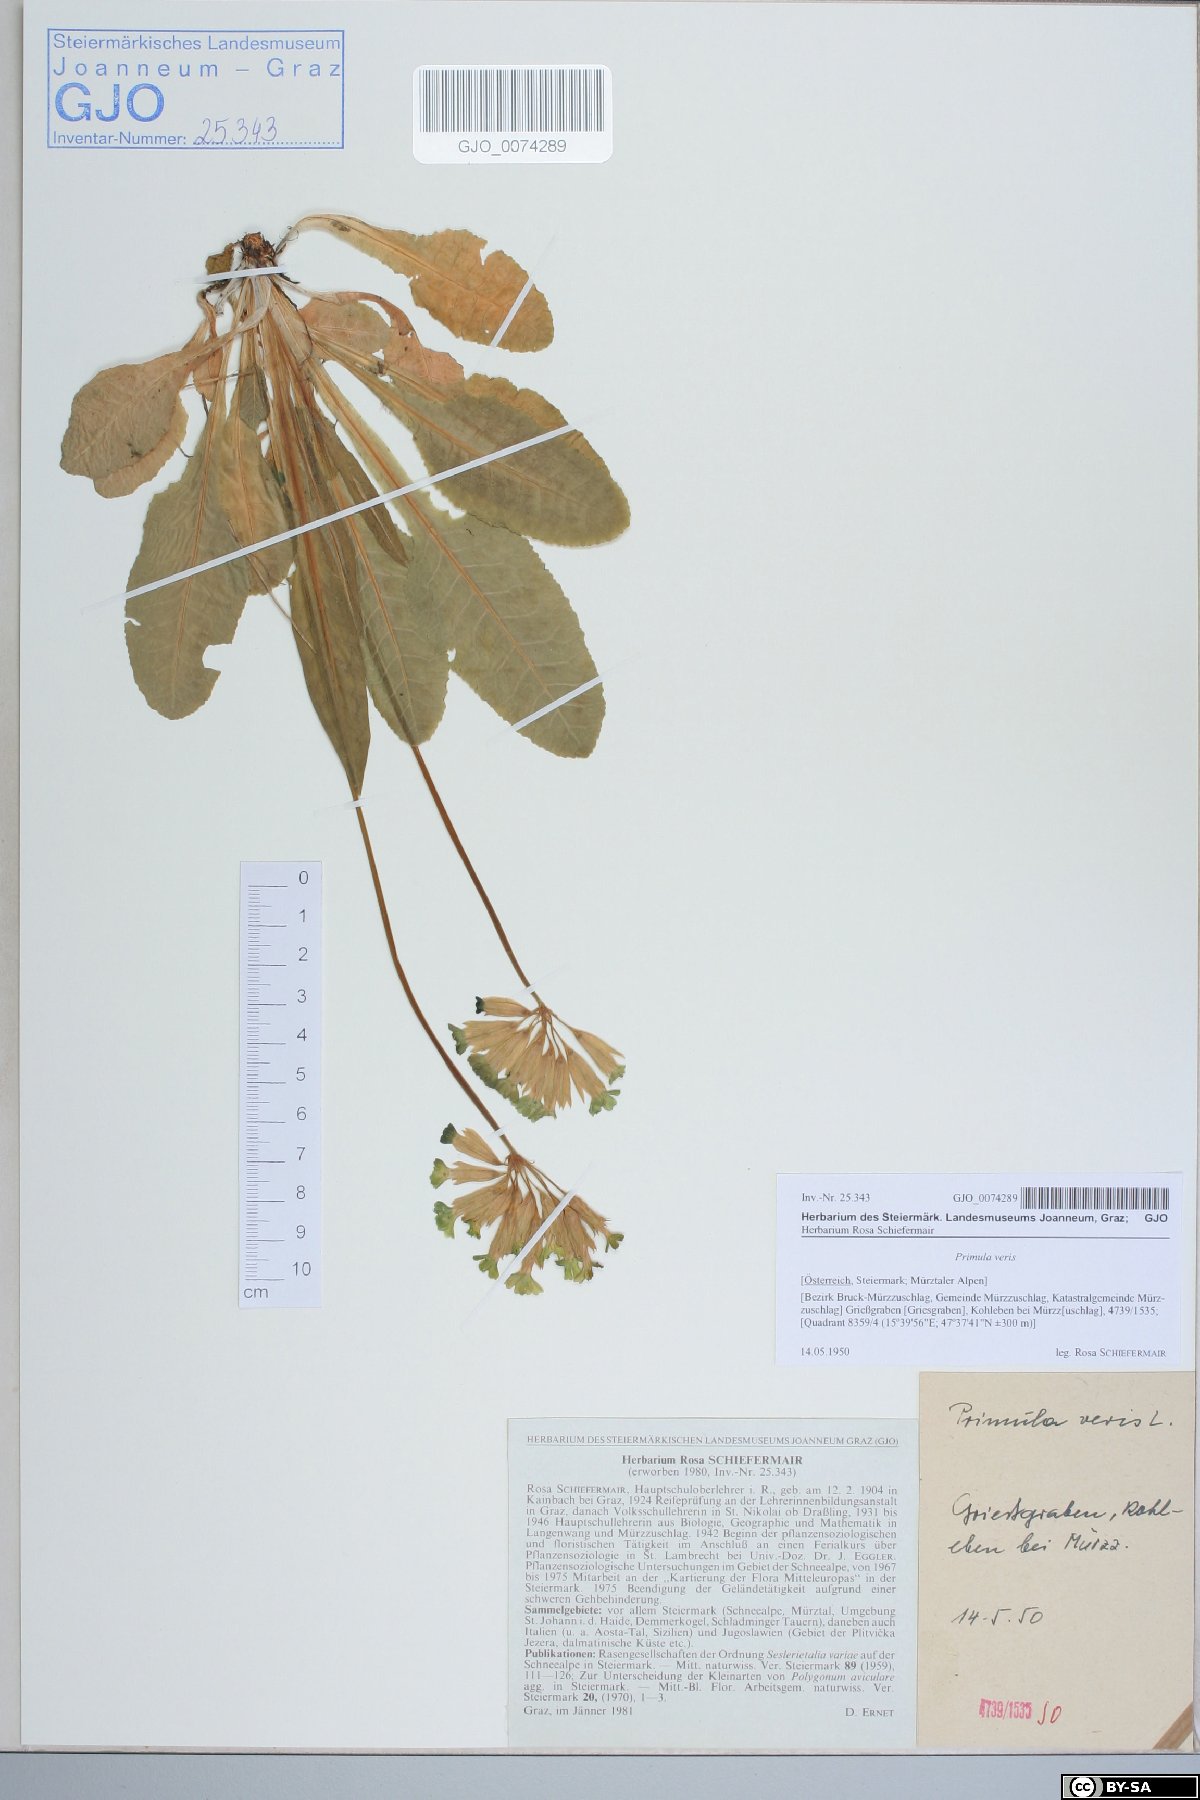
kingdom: Plantae
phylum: Tracheophyta
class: Magnoliopsida
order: Ericales
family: Primulaceae
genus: Primula
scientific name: Primula veris
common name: Cowslip
